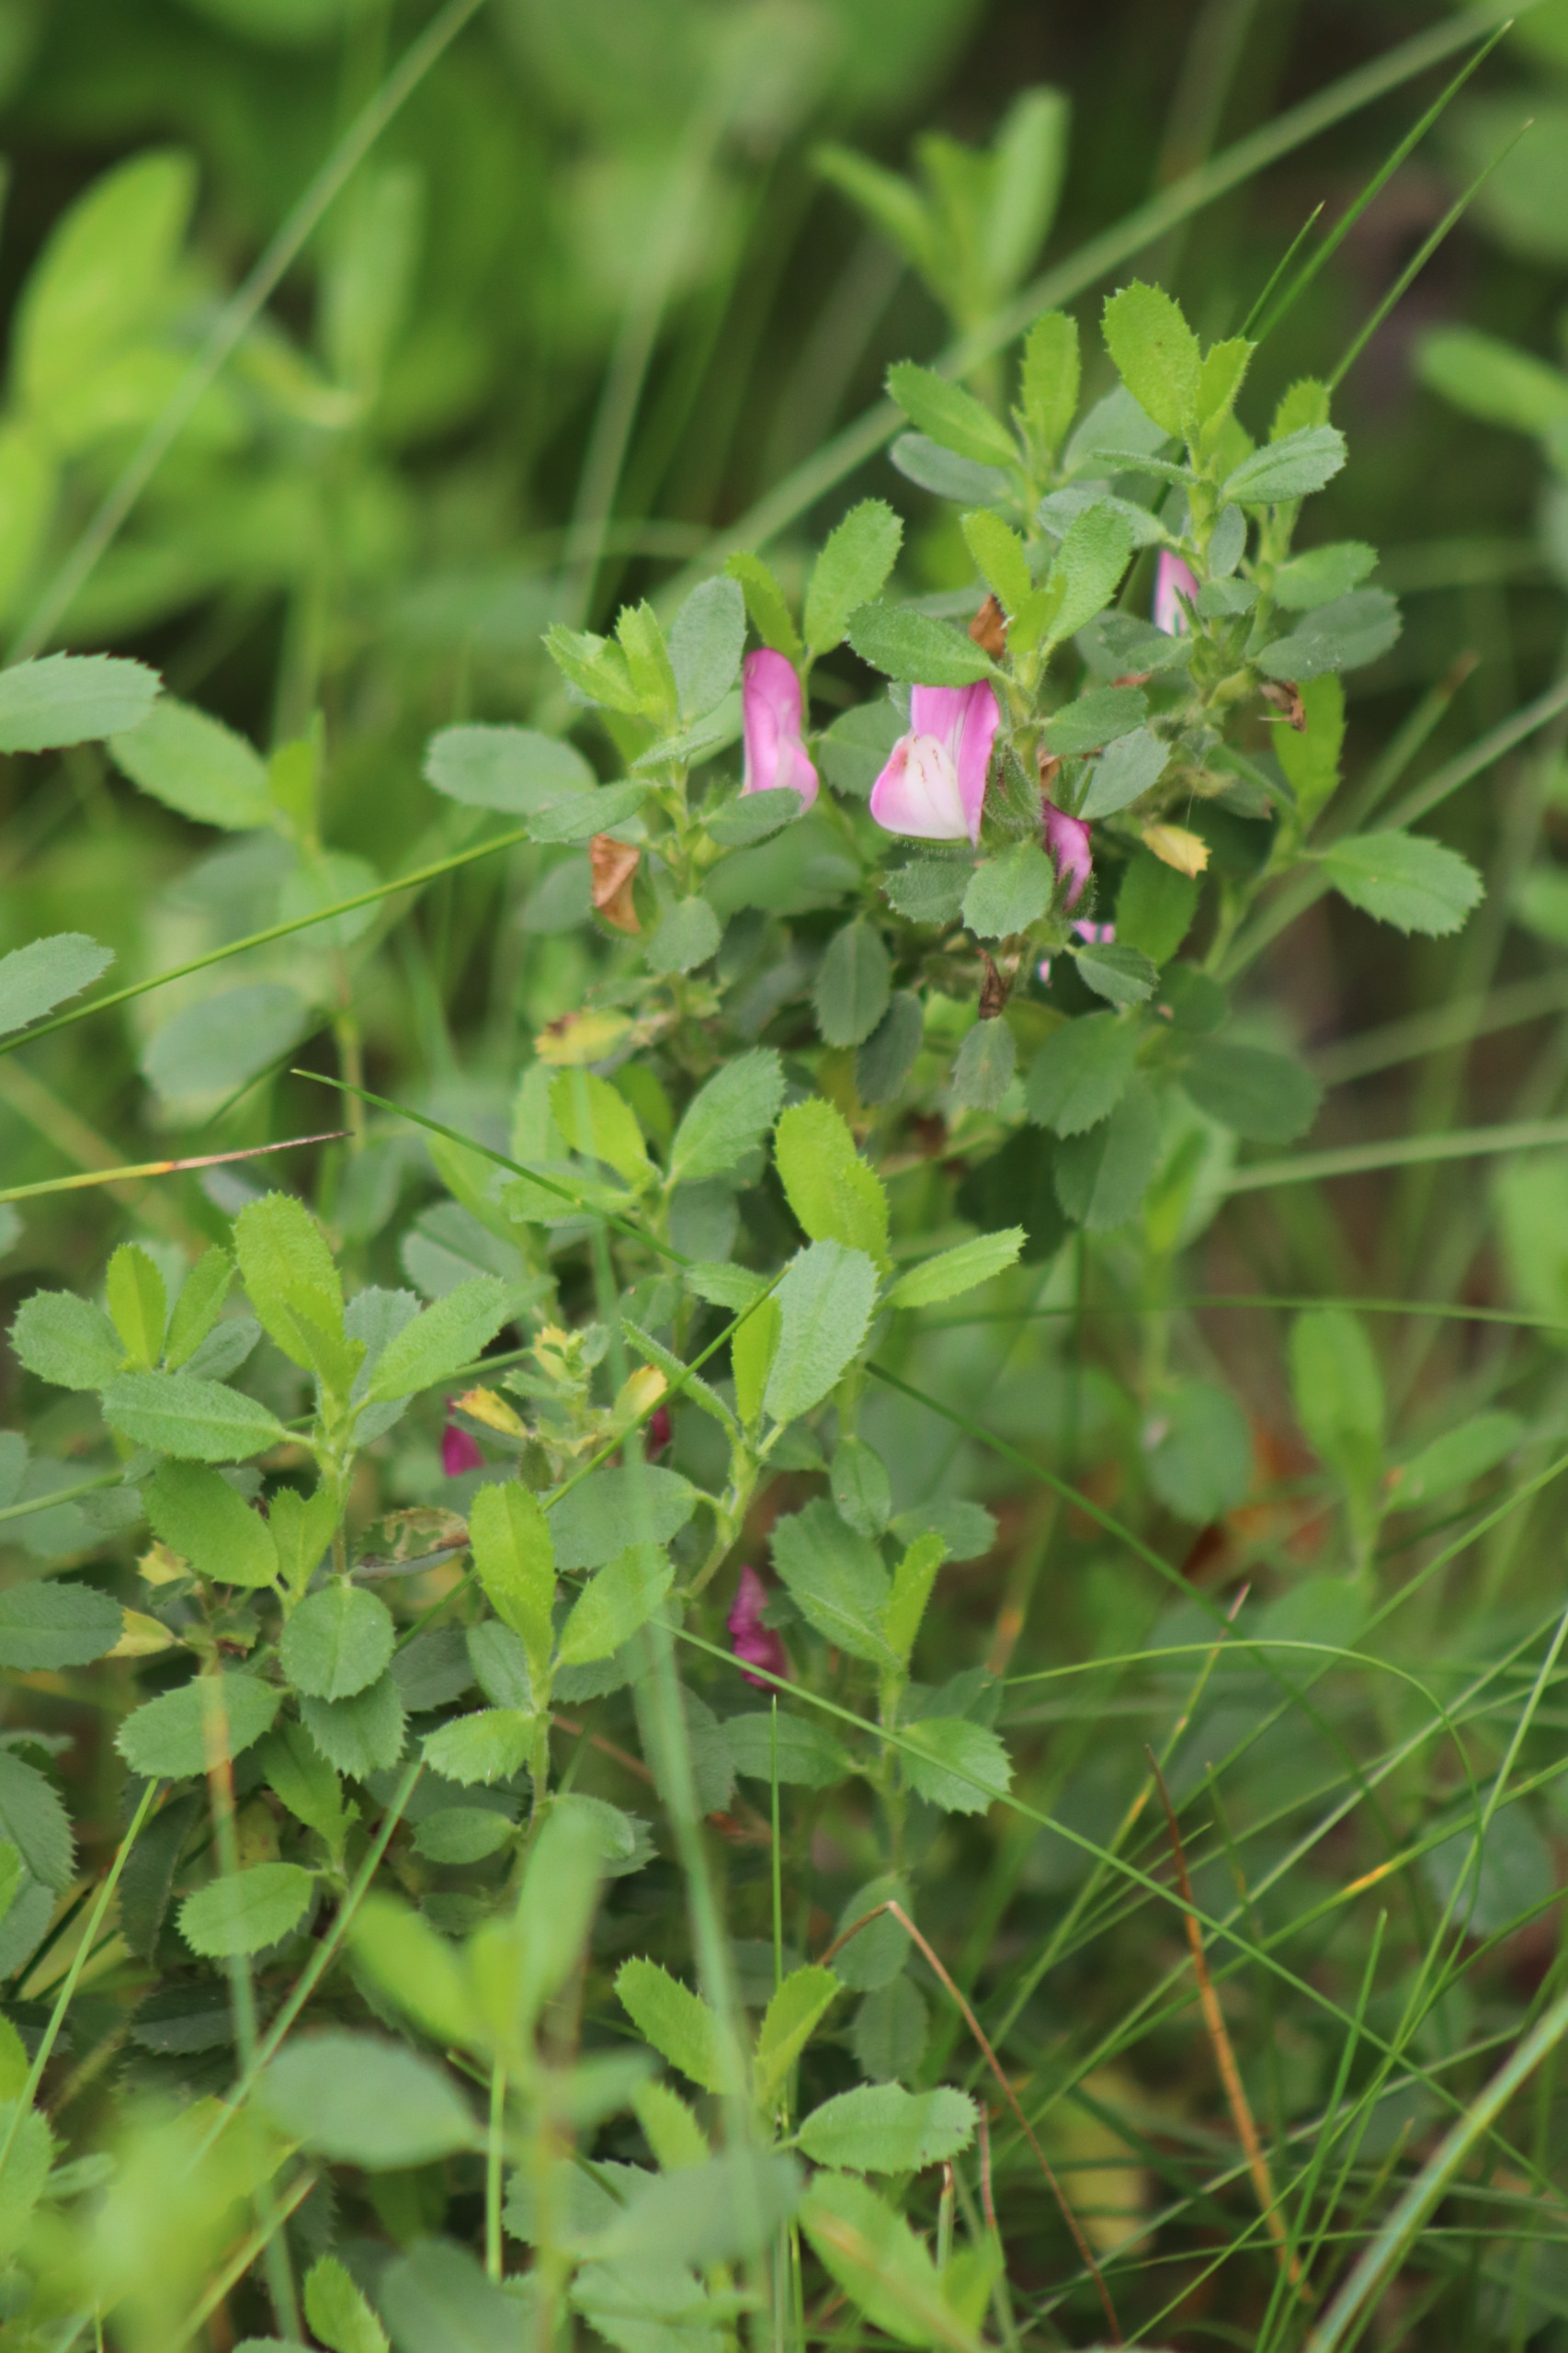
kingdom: Plantae
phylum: Tracheophyta
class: Magnoliopsida
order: Fabales
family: Fabaceae
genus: Ononis
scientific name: Ononis spinosa
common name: Mark-krageklo
